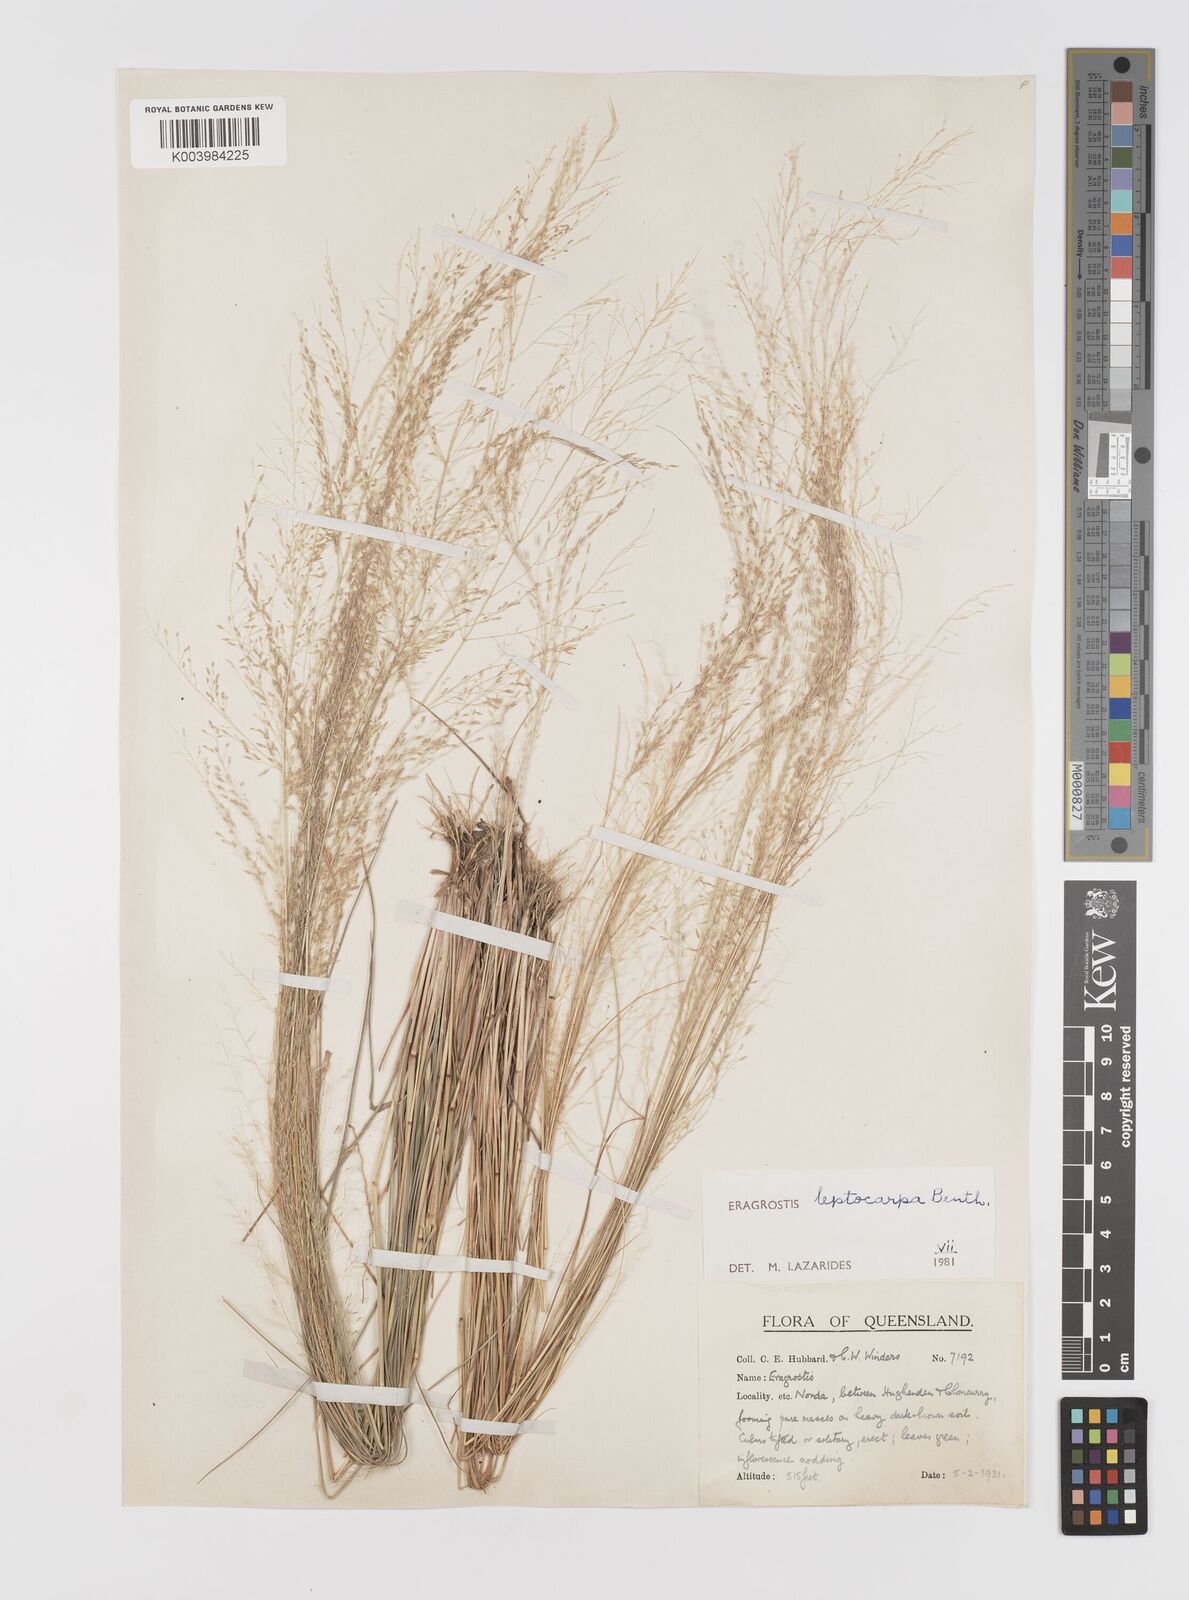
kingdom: Plantae
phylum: Tracheophyta
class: Liliopsida
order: Poales
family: Poaceae
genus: Eragrostis
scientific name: Eragrostis leptocarpa
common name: Drooping love grass
